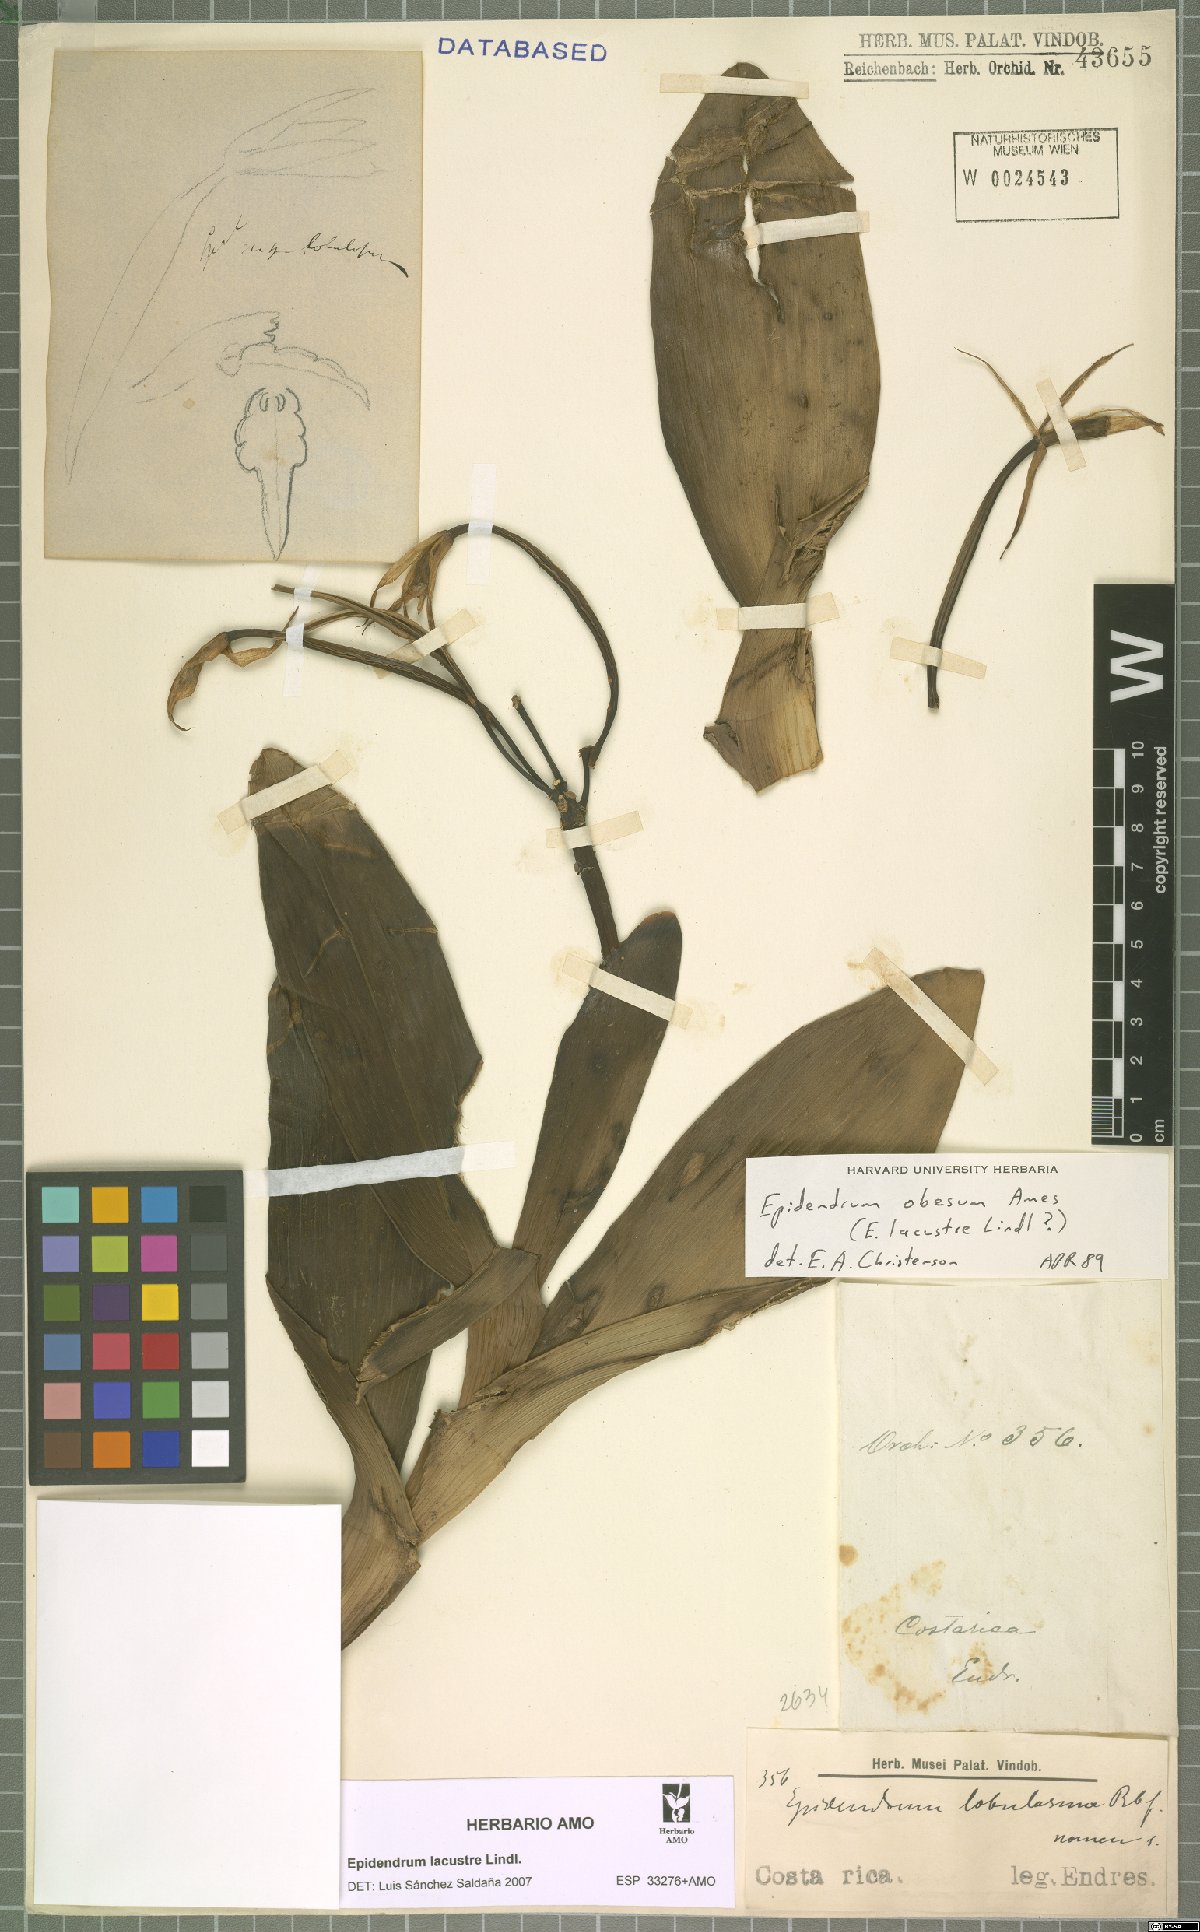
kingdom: Plantae
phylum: Tracheophyta
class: Liliopsida
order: Asparagales
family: Orchidaceae
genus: Epidendrum
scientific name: Epidendrum lacustre
